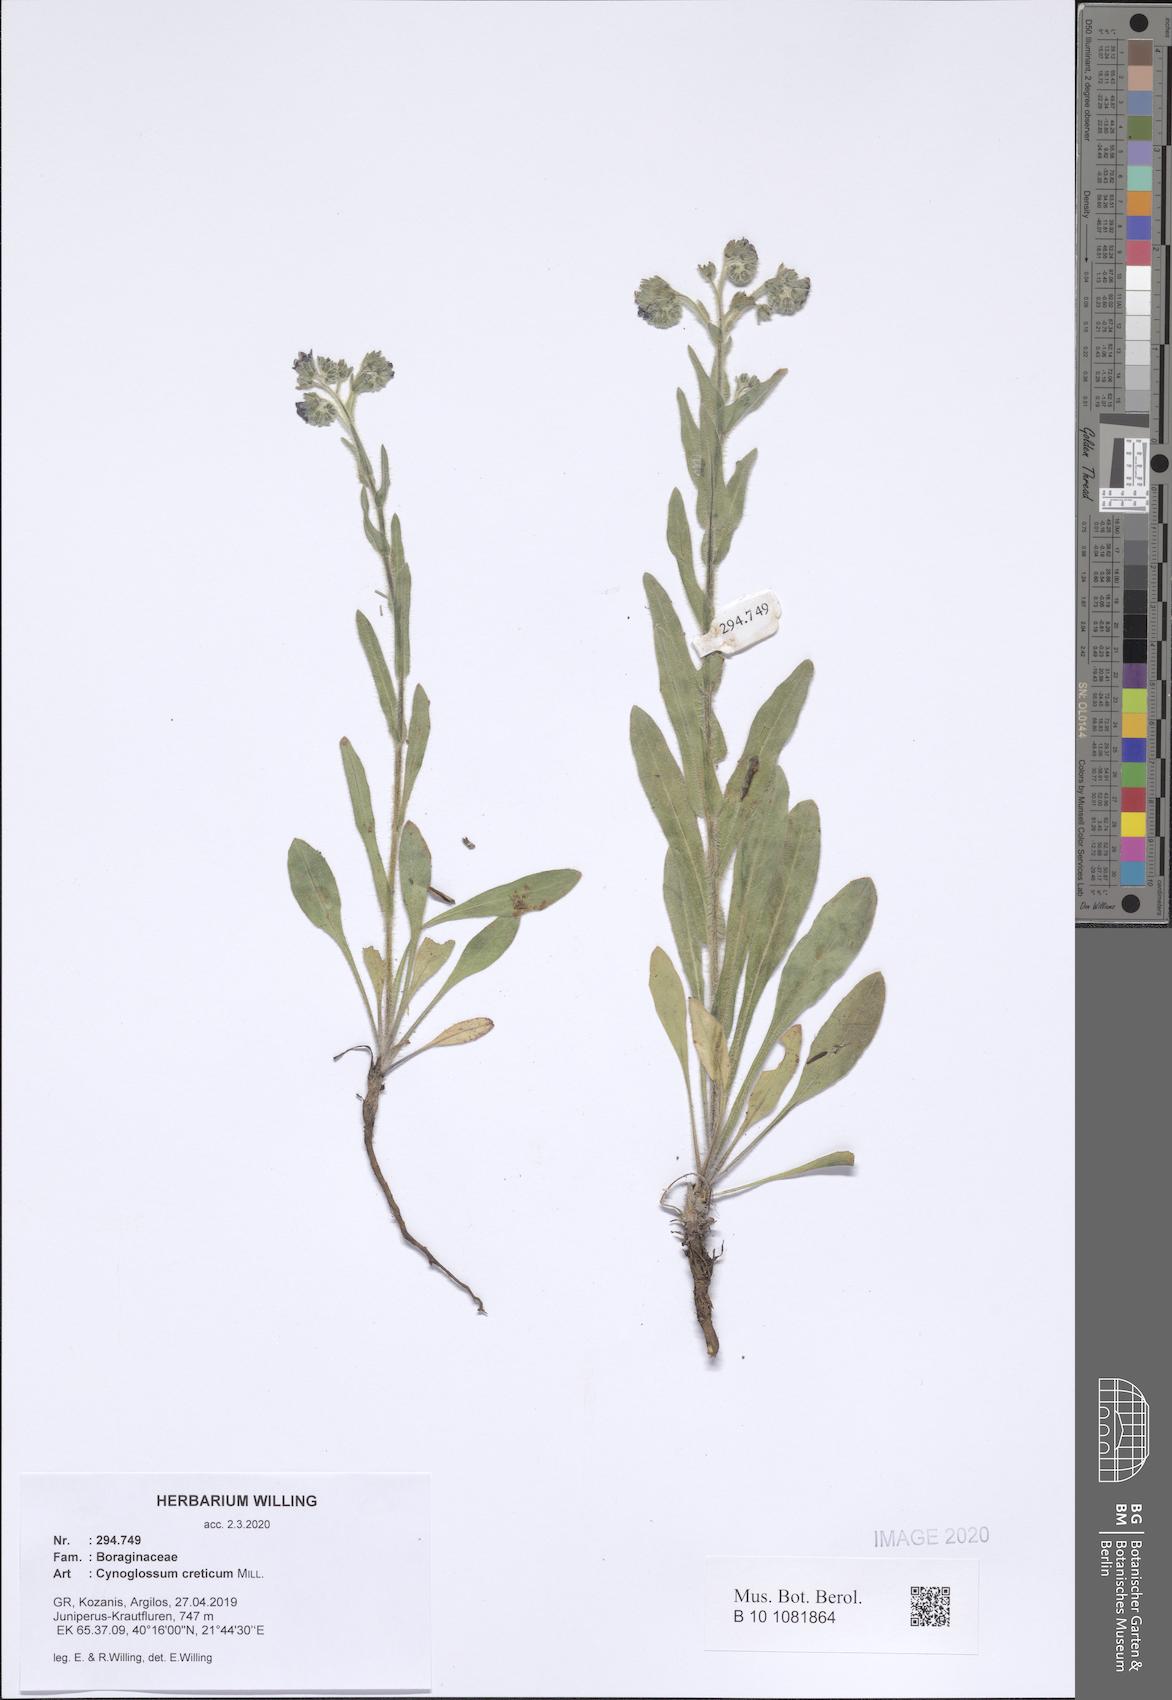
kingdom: Plantae
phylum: Tracheophyta
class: Magnoliopsida
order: Boraginales
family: Boraginaceae
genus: Cynoglossum
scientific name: Cynoglossum creticum
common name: Blue hound's tongue
